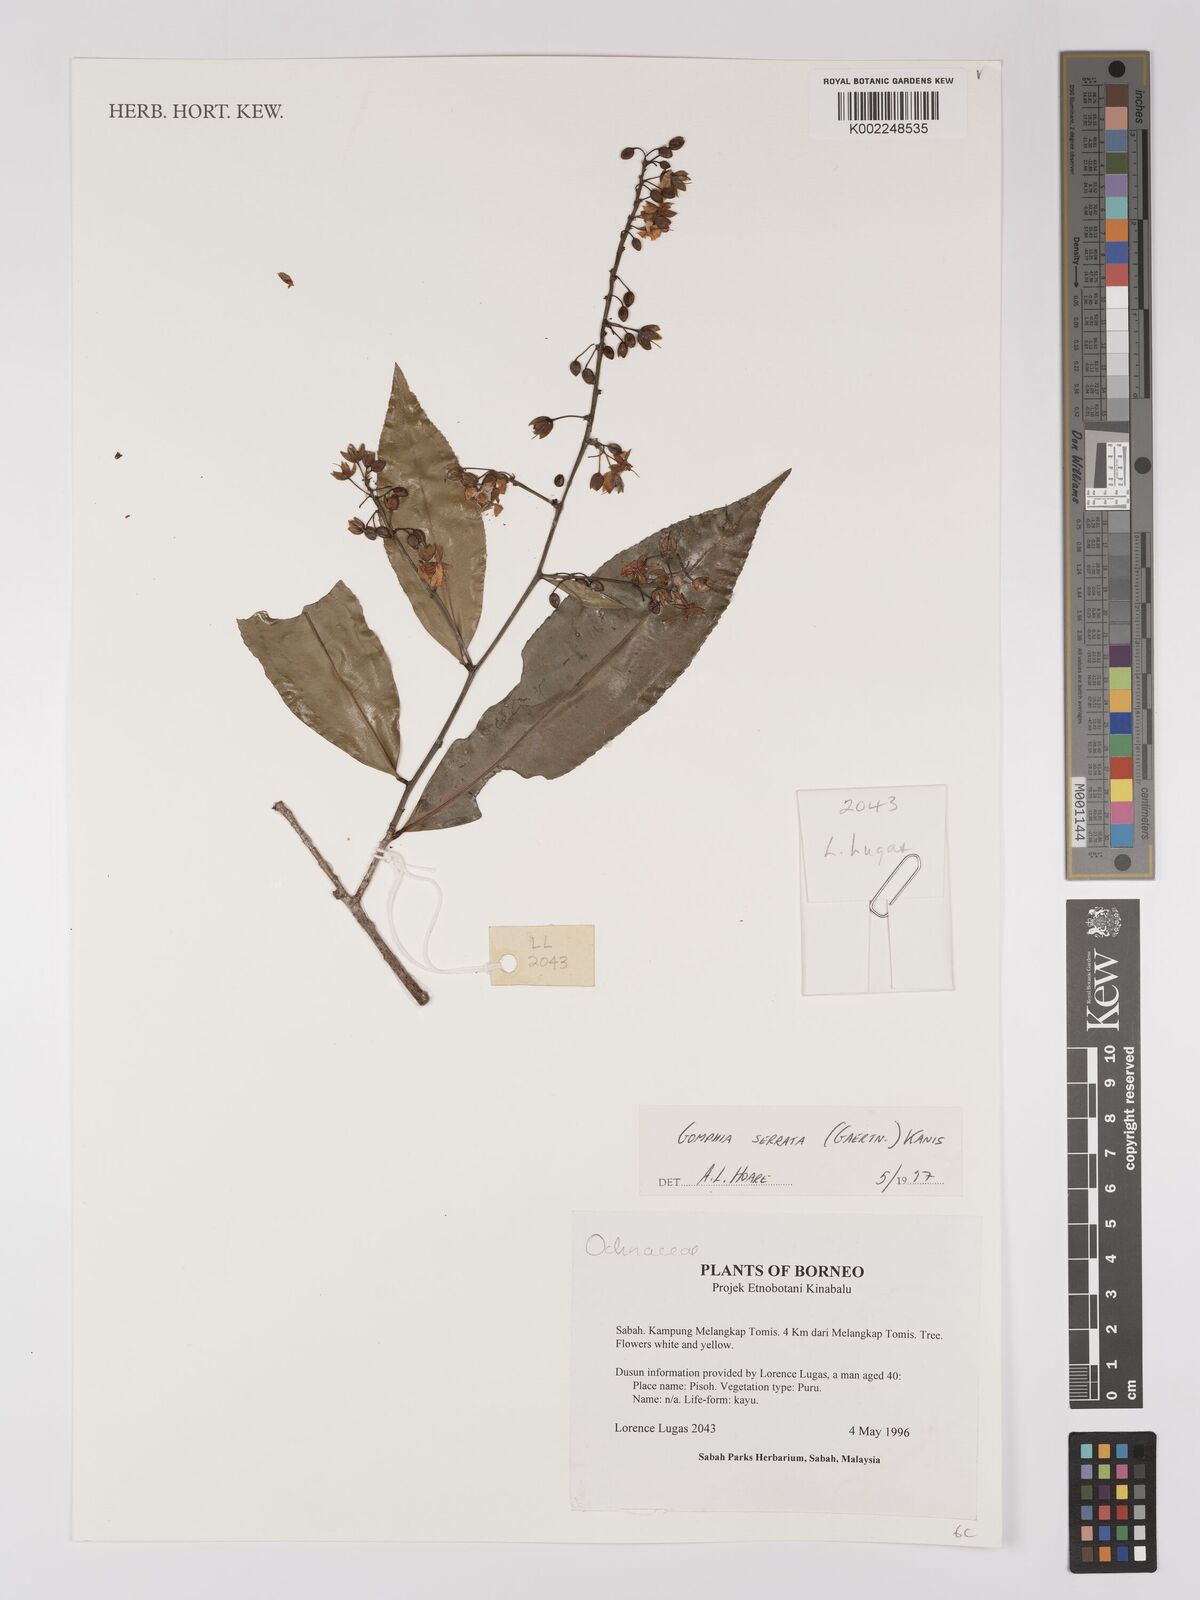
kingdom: Plantae
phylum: Tracheophyta
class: Magnoliopsida
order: Malpighiales
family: Ochnaceae
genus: Gomphia
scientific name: Gomphia serrata
